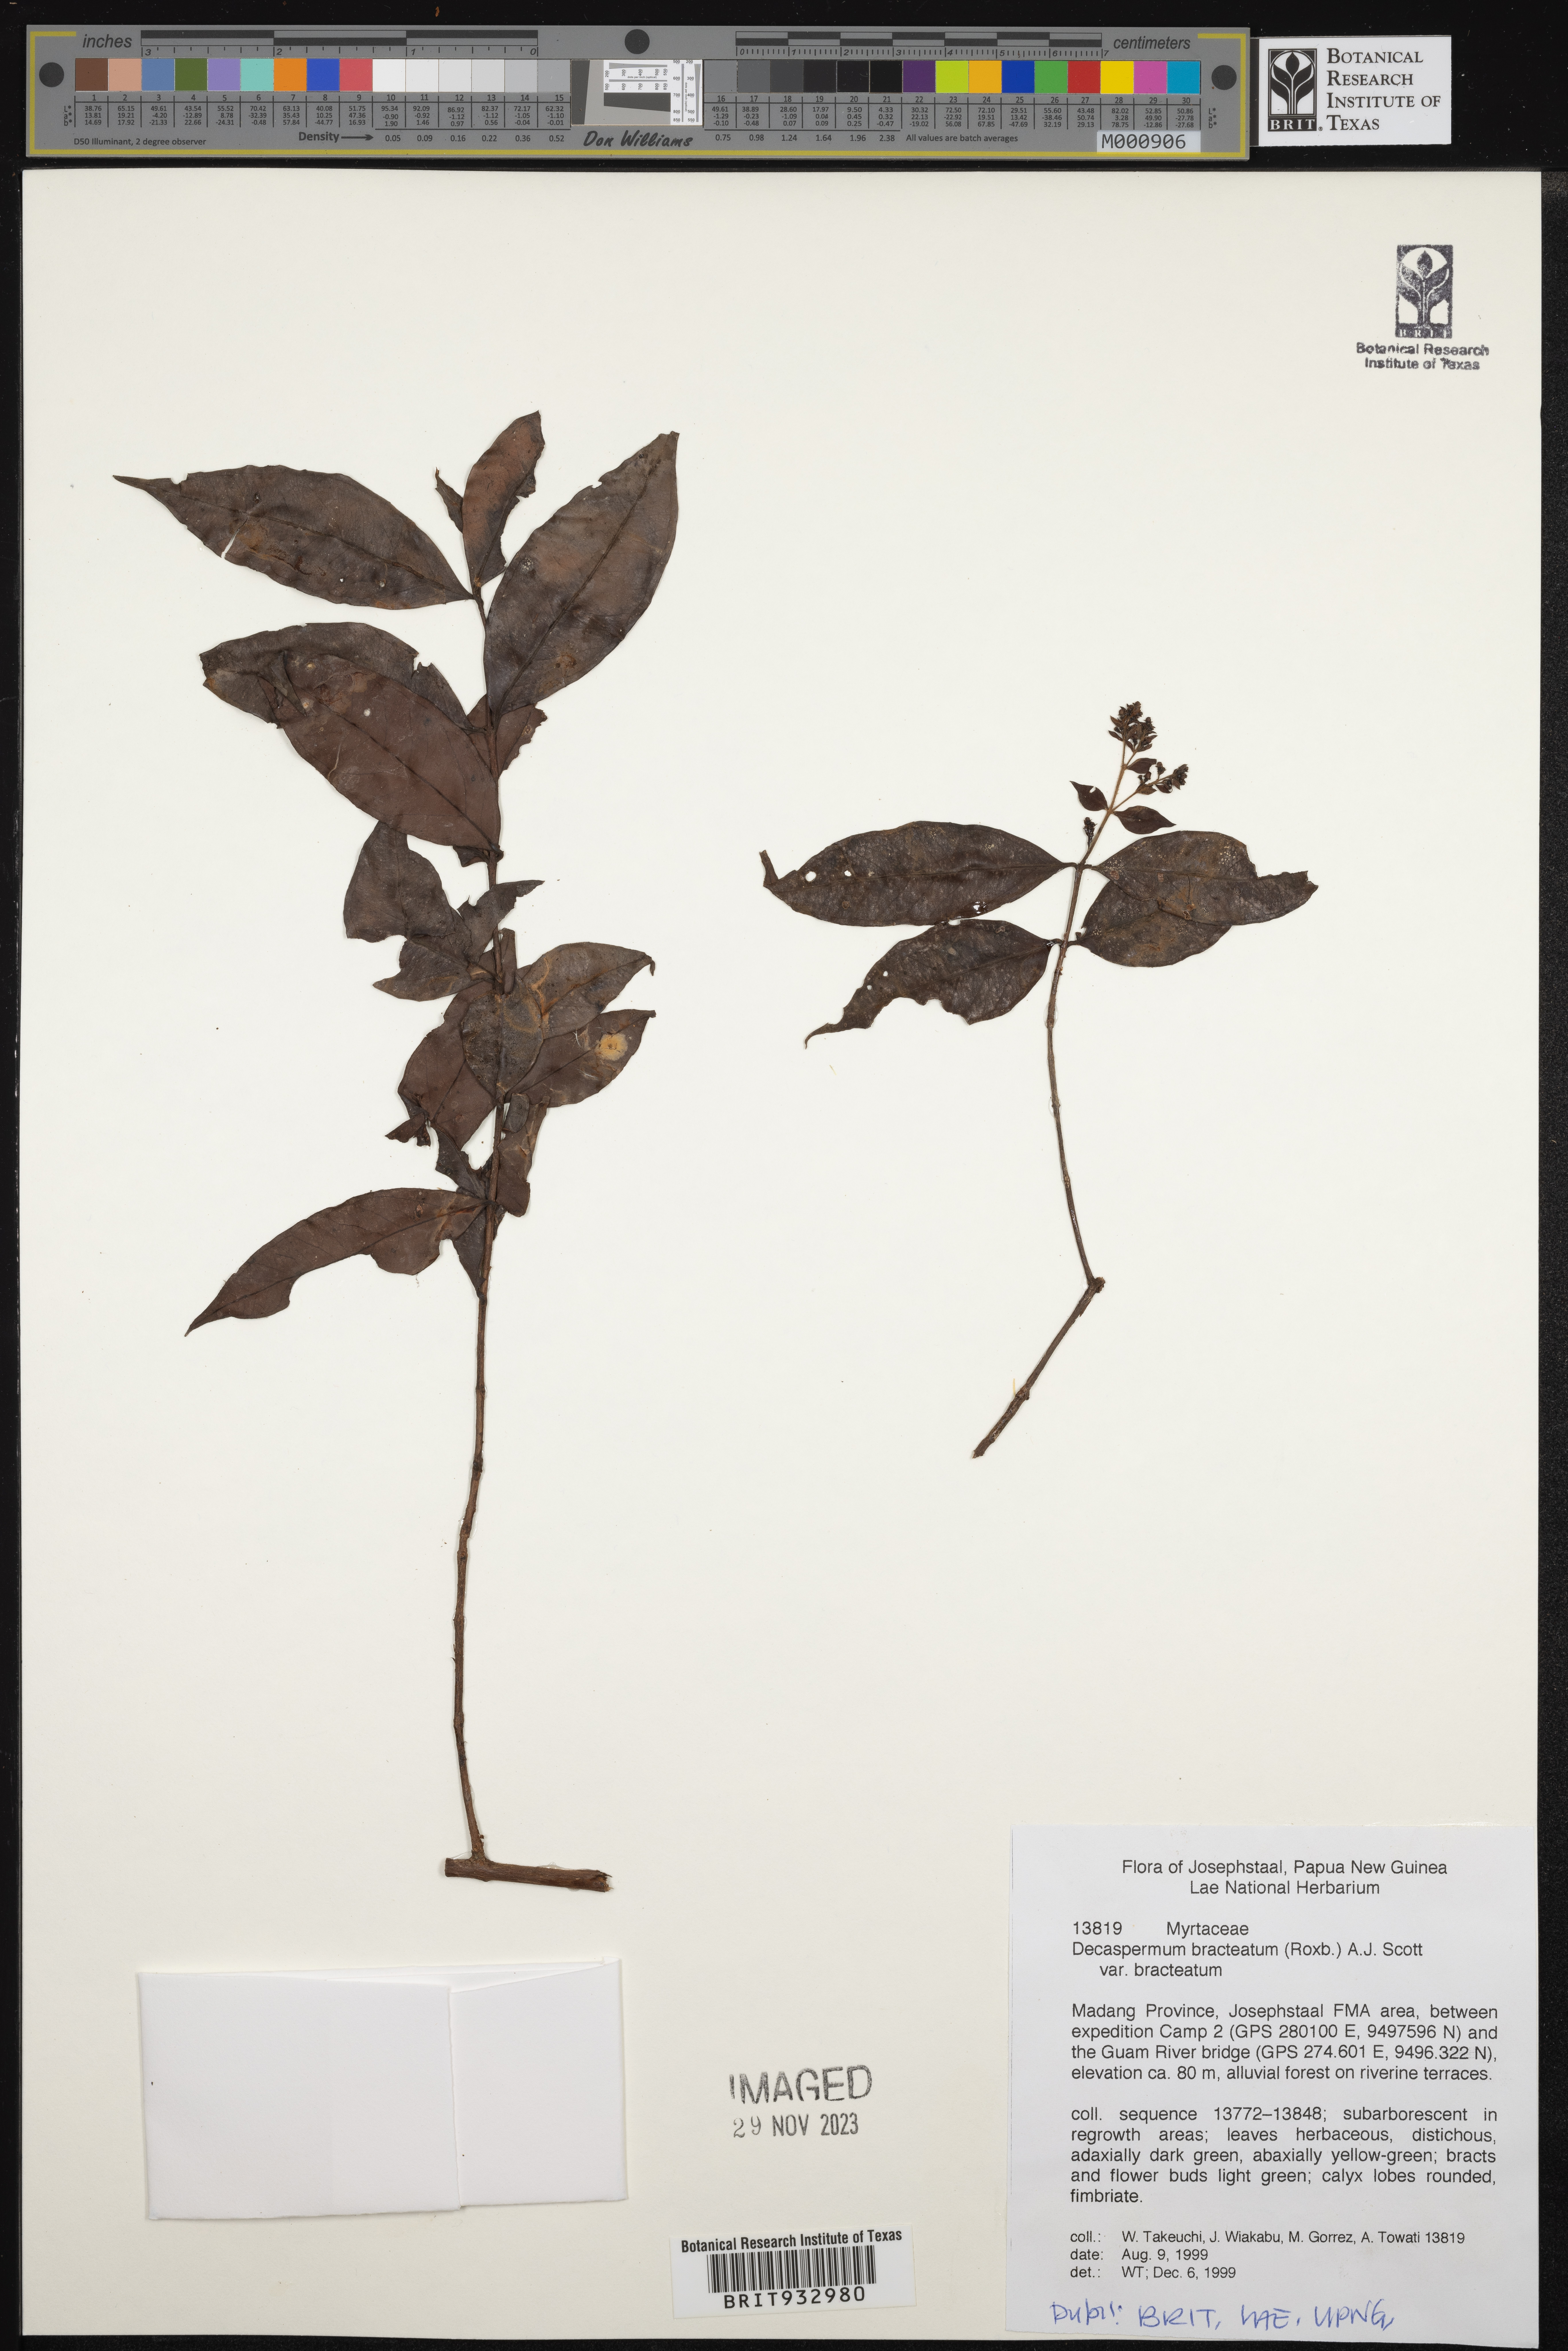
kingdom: Plantae
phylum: Tracheophyta
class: Magnoliopsida
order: Myrtales
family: Myrtaceae
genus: Decaspermum
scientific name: Decaspermum
